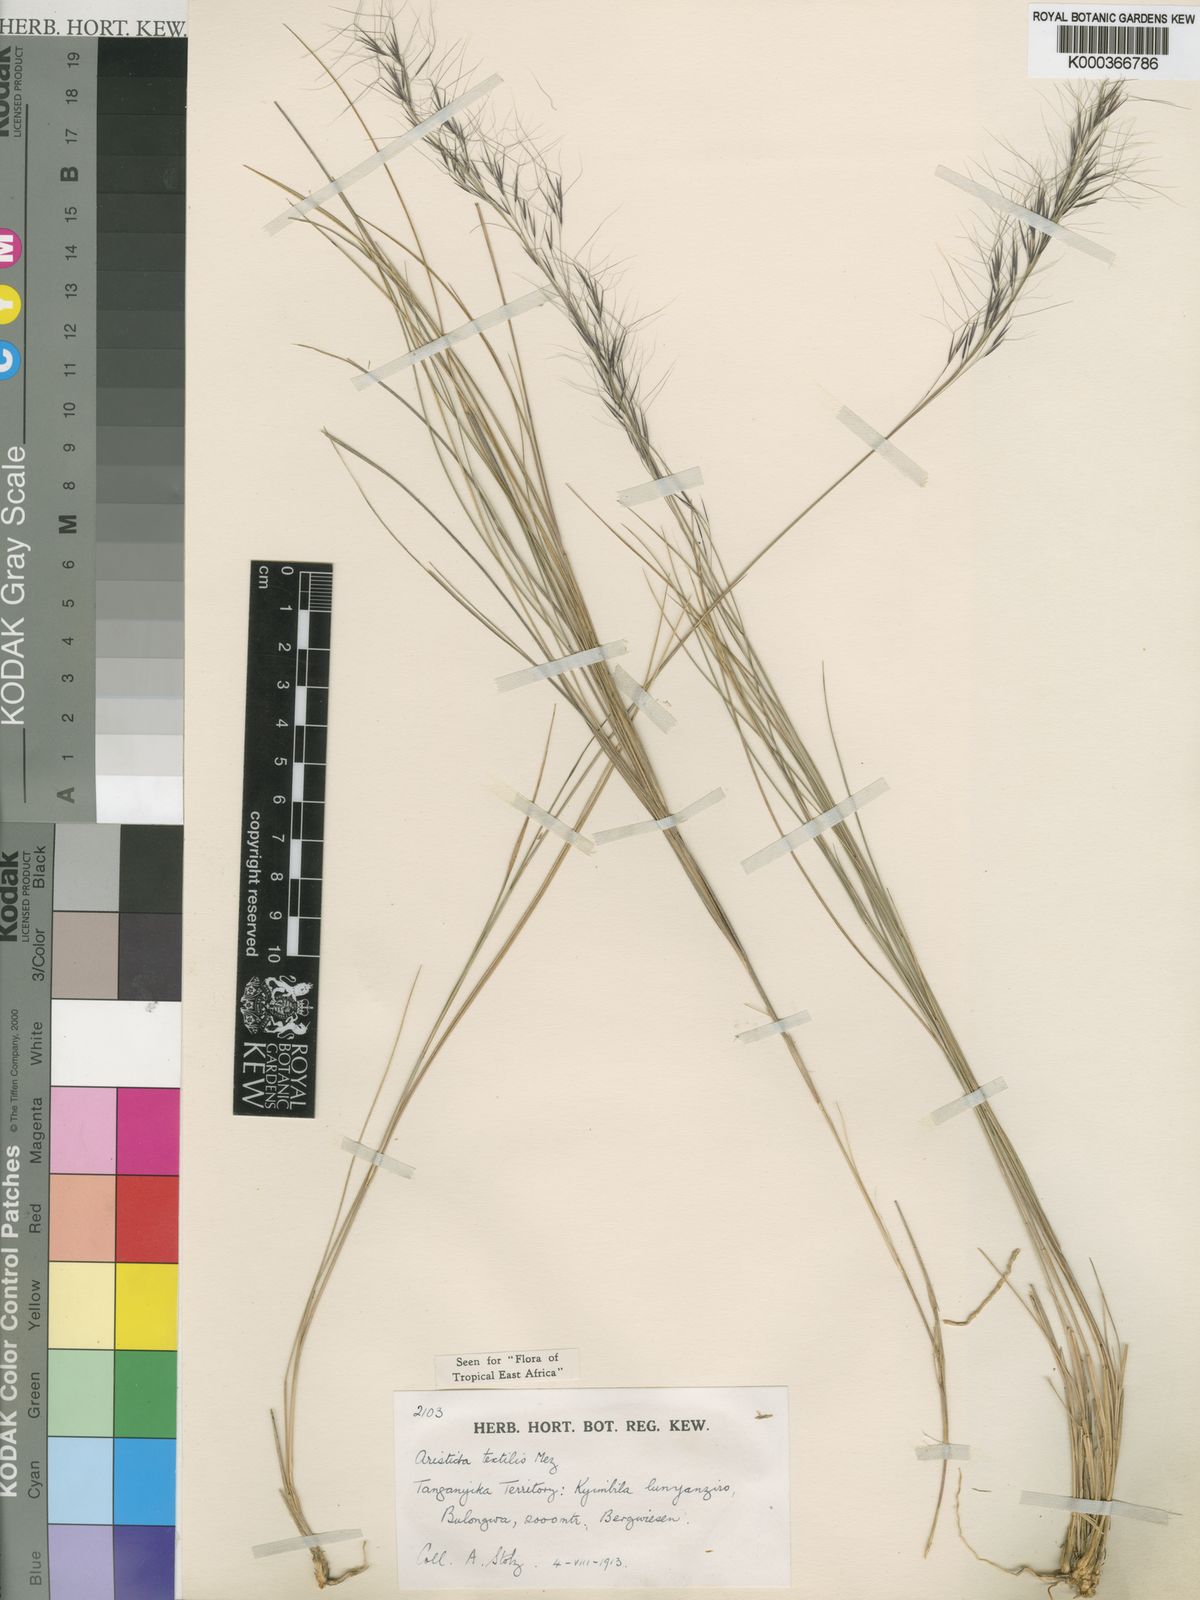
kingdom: Plantae
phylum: Tracheophyta
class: Liliopsida
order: Poales
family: Poaceae
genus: Aristida
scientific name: Aristida junciformis
